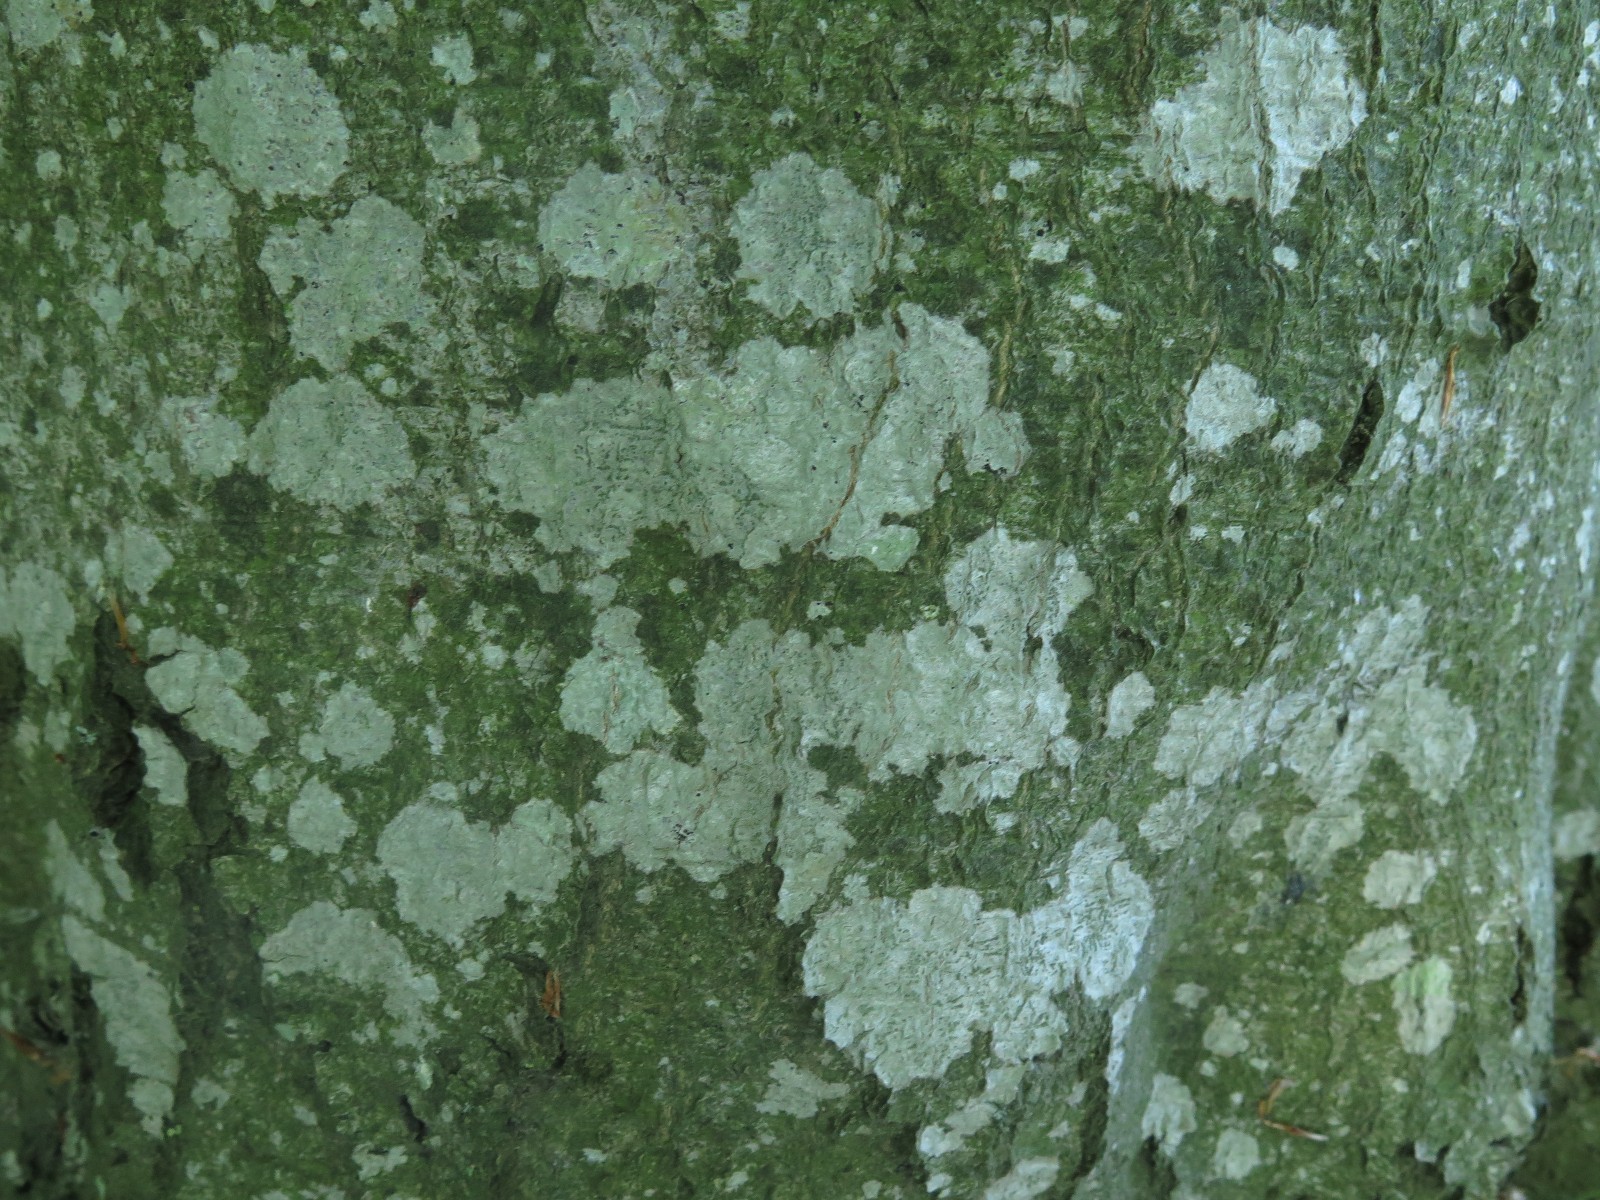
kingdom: Fungi
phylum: Ascomycota
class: Lecanoromycetes
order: Ostropales
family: Phlyctidaceae
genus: Phlyctis
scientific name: Phlyctis argena
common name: almindelig sølvlav
